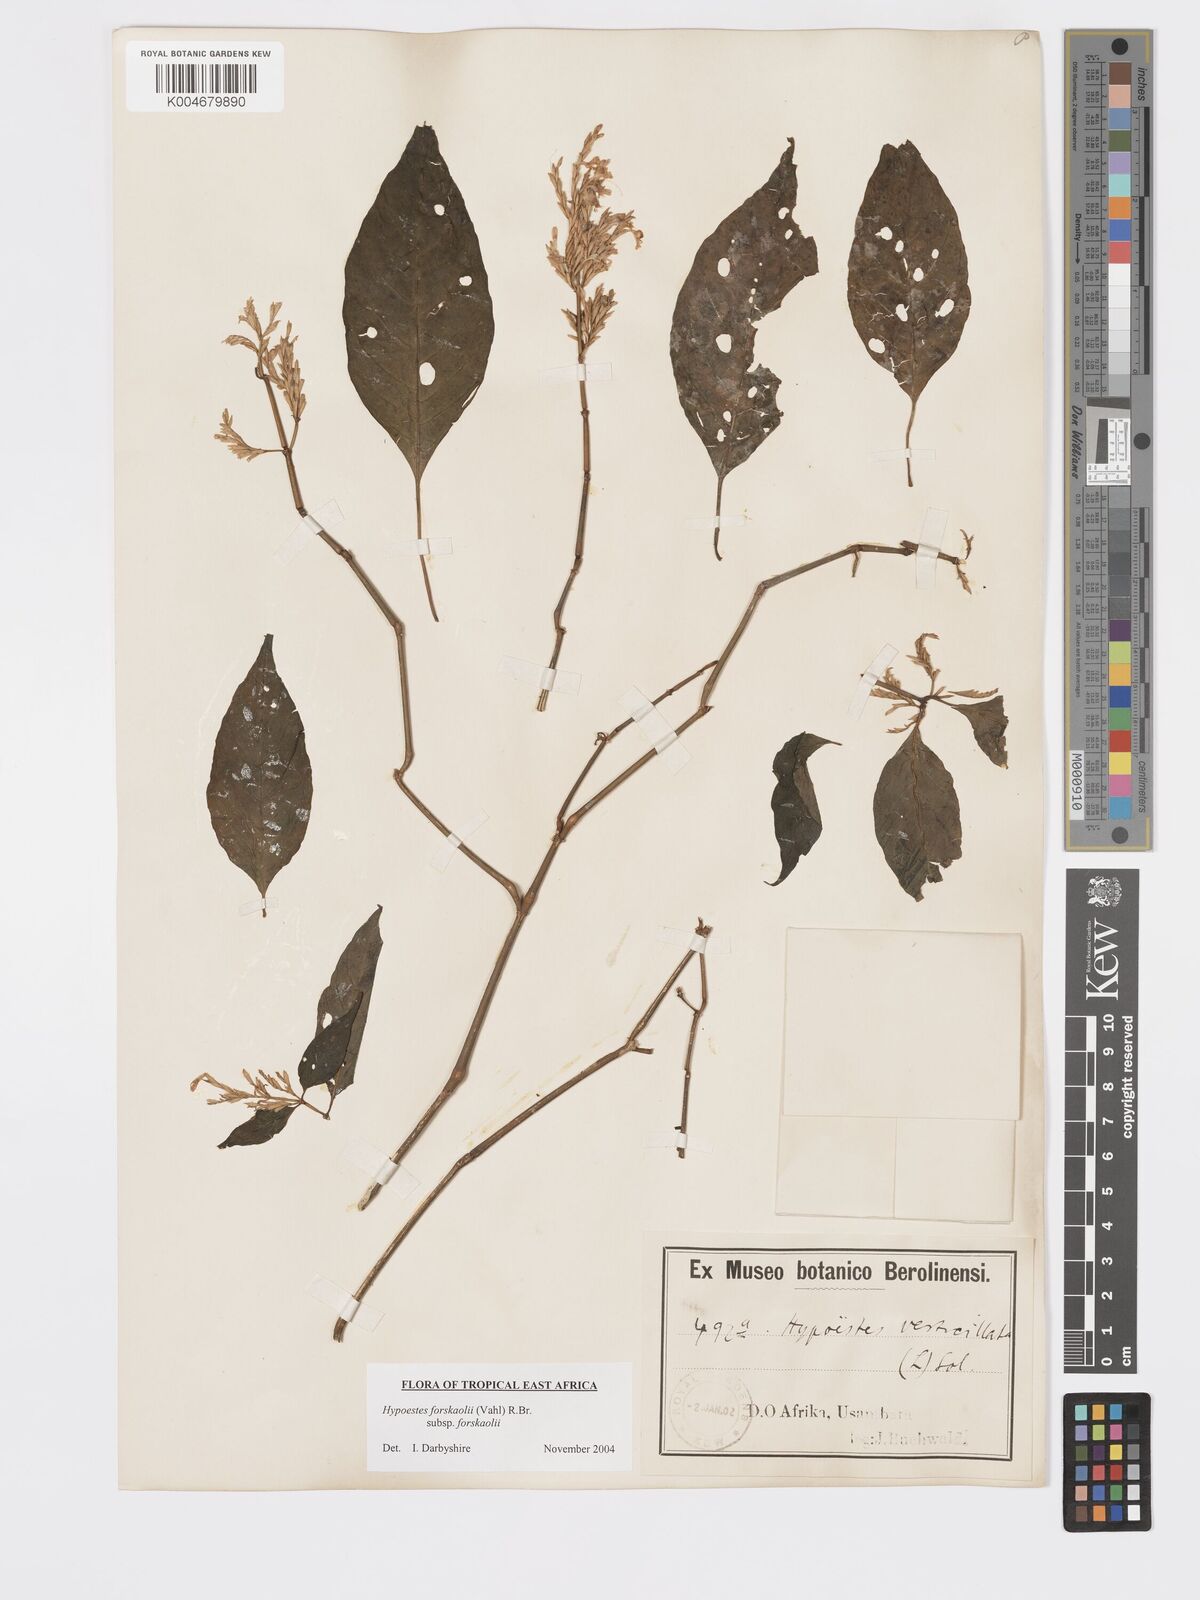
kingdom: Plantae
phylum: Tracheophyta
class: Magnoliopsida
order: Lamiales
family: Acanthaceae
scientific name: Acanthaceae
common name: Acanthaceae
